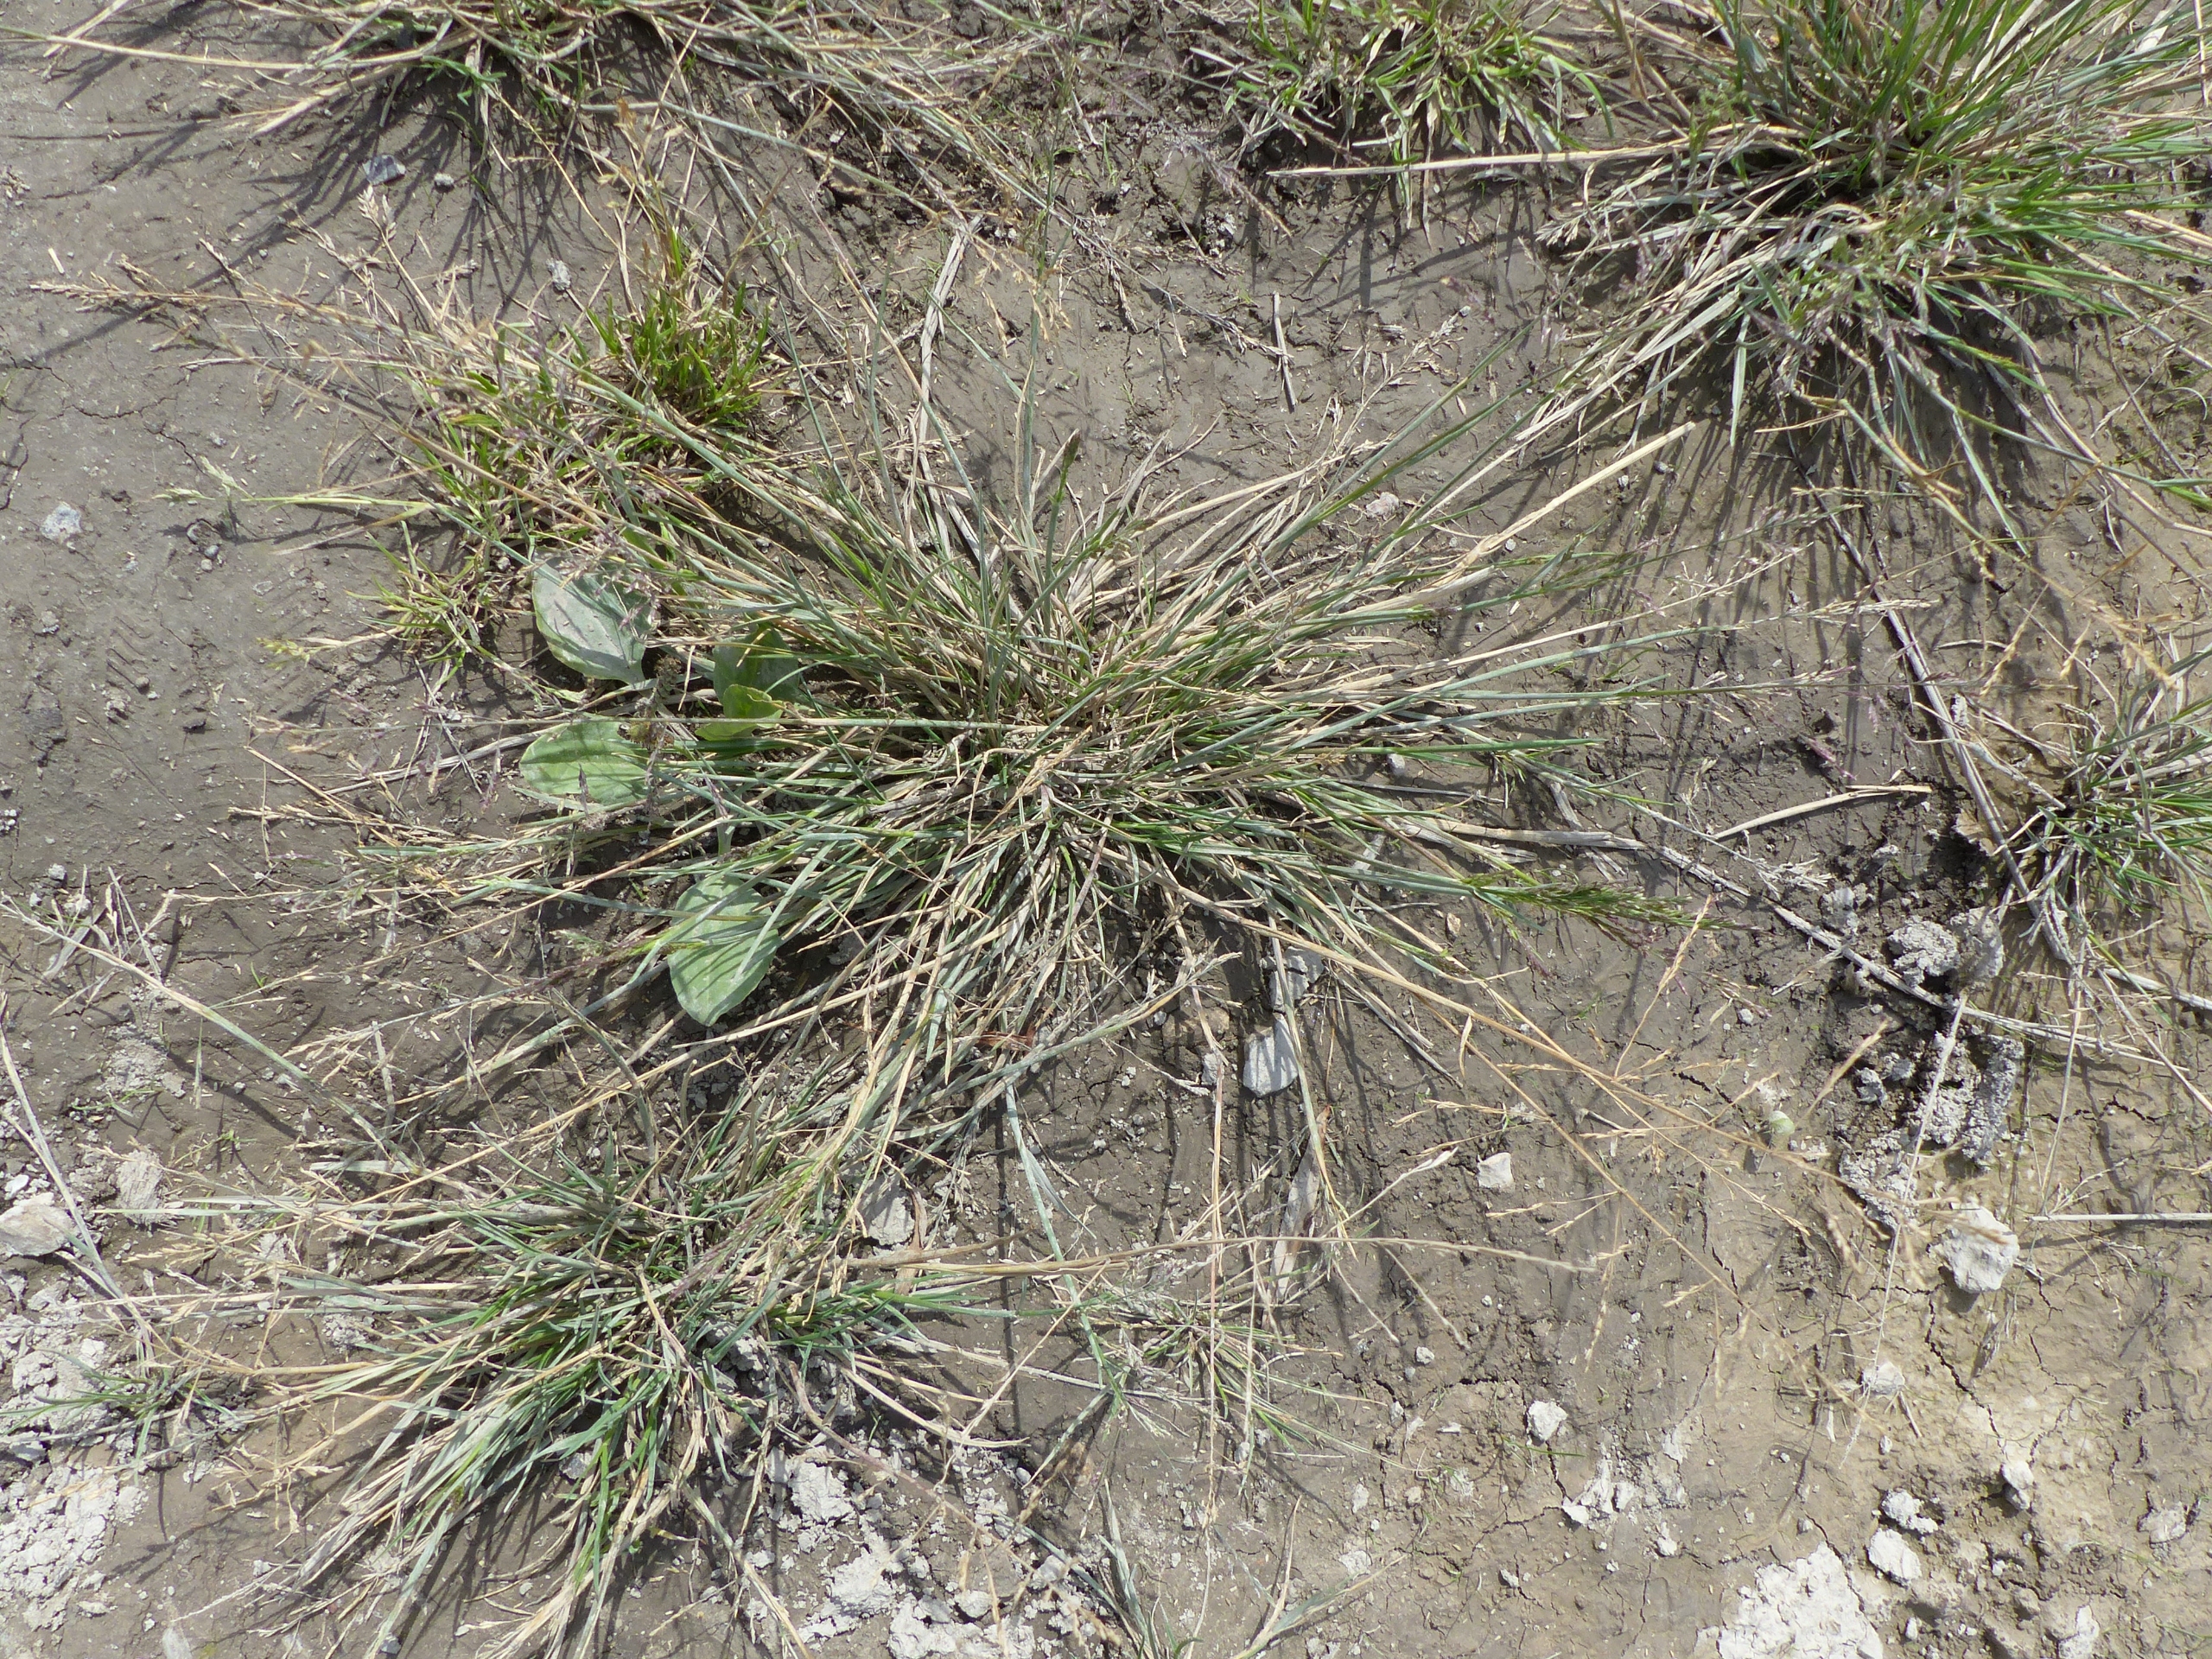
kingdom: Plantae
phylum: Tracheophyta
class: Liliopsida
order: Poales
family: Poaceae
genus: Puccinellia
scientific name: Puccinellia distans
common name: Udspærret annelgræs
